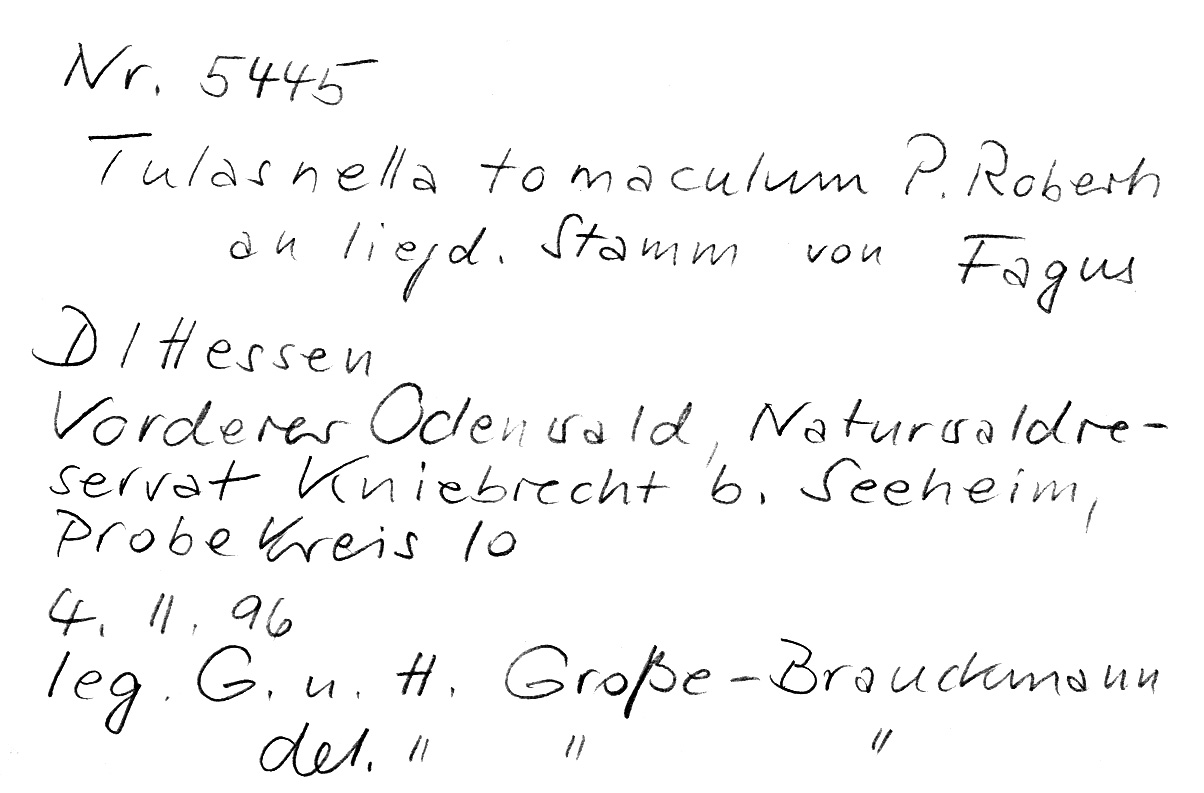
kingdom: Plantae
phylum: Tracheophyta
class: Magnoliopsida
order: Fagales
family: Fagaceae
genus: Fagus
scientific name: Fagus sylvatica
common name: Beech
